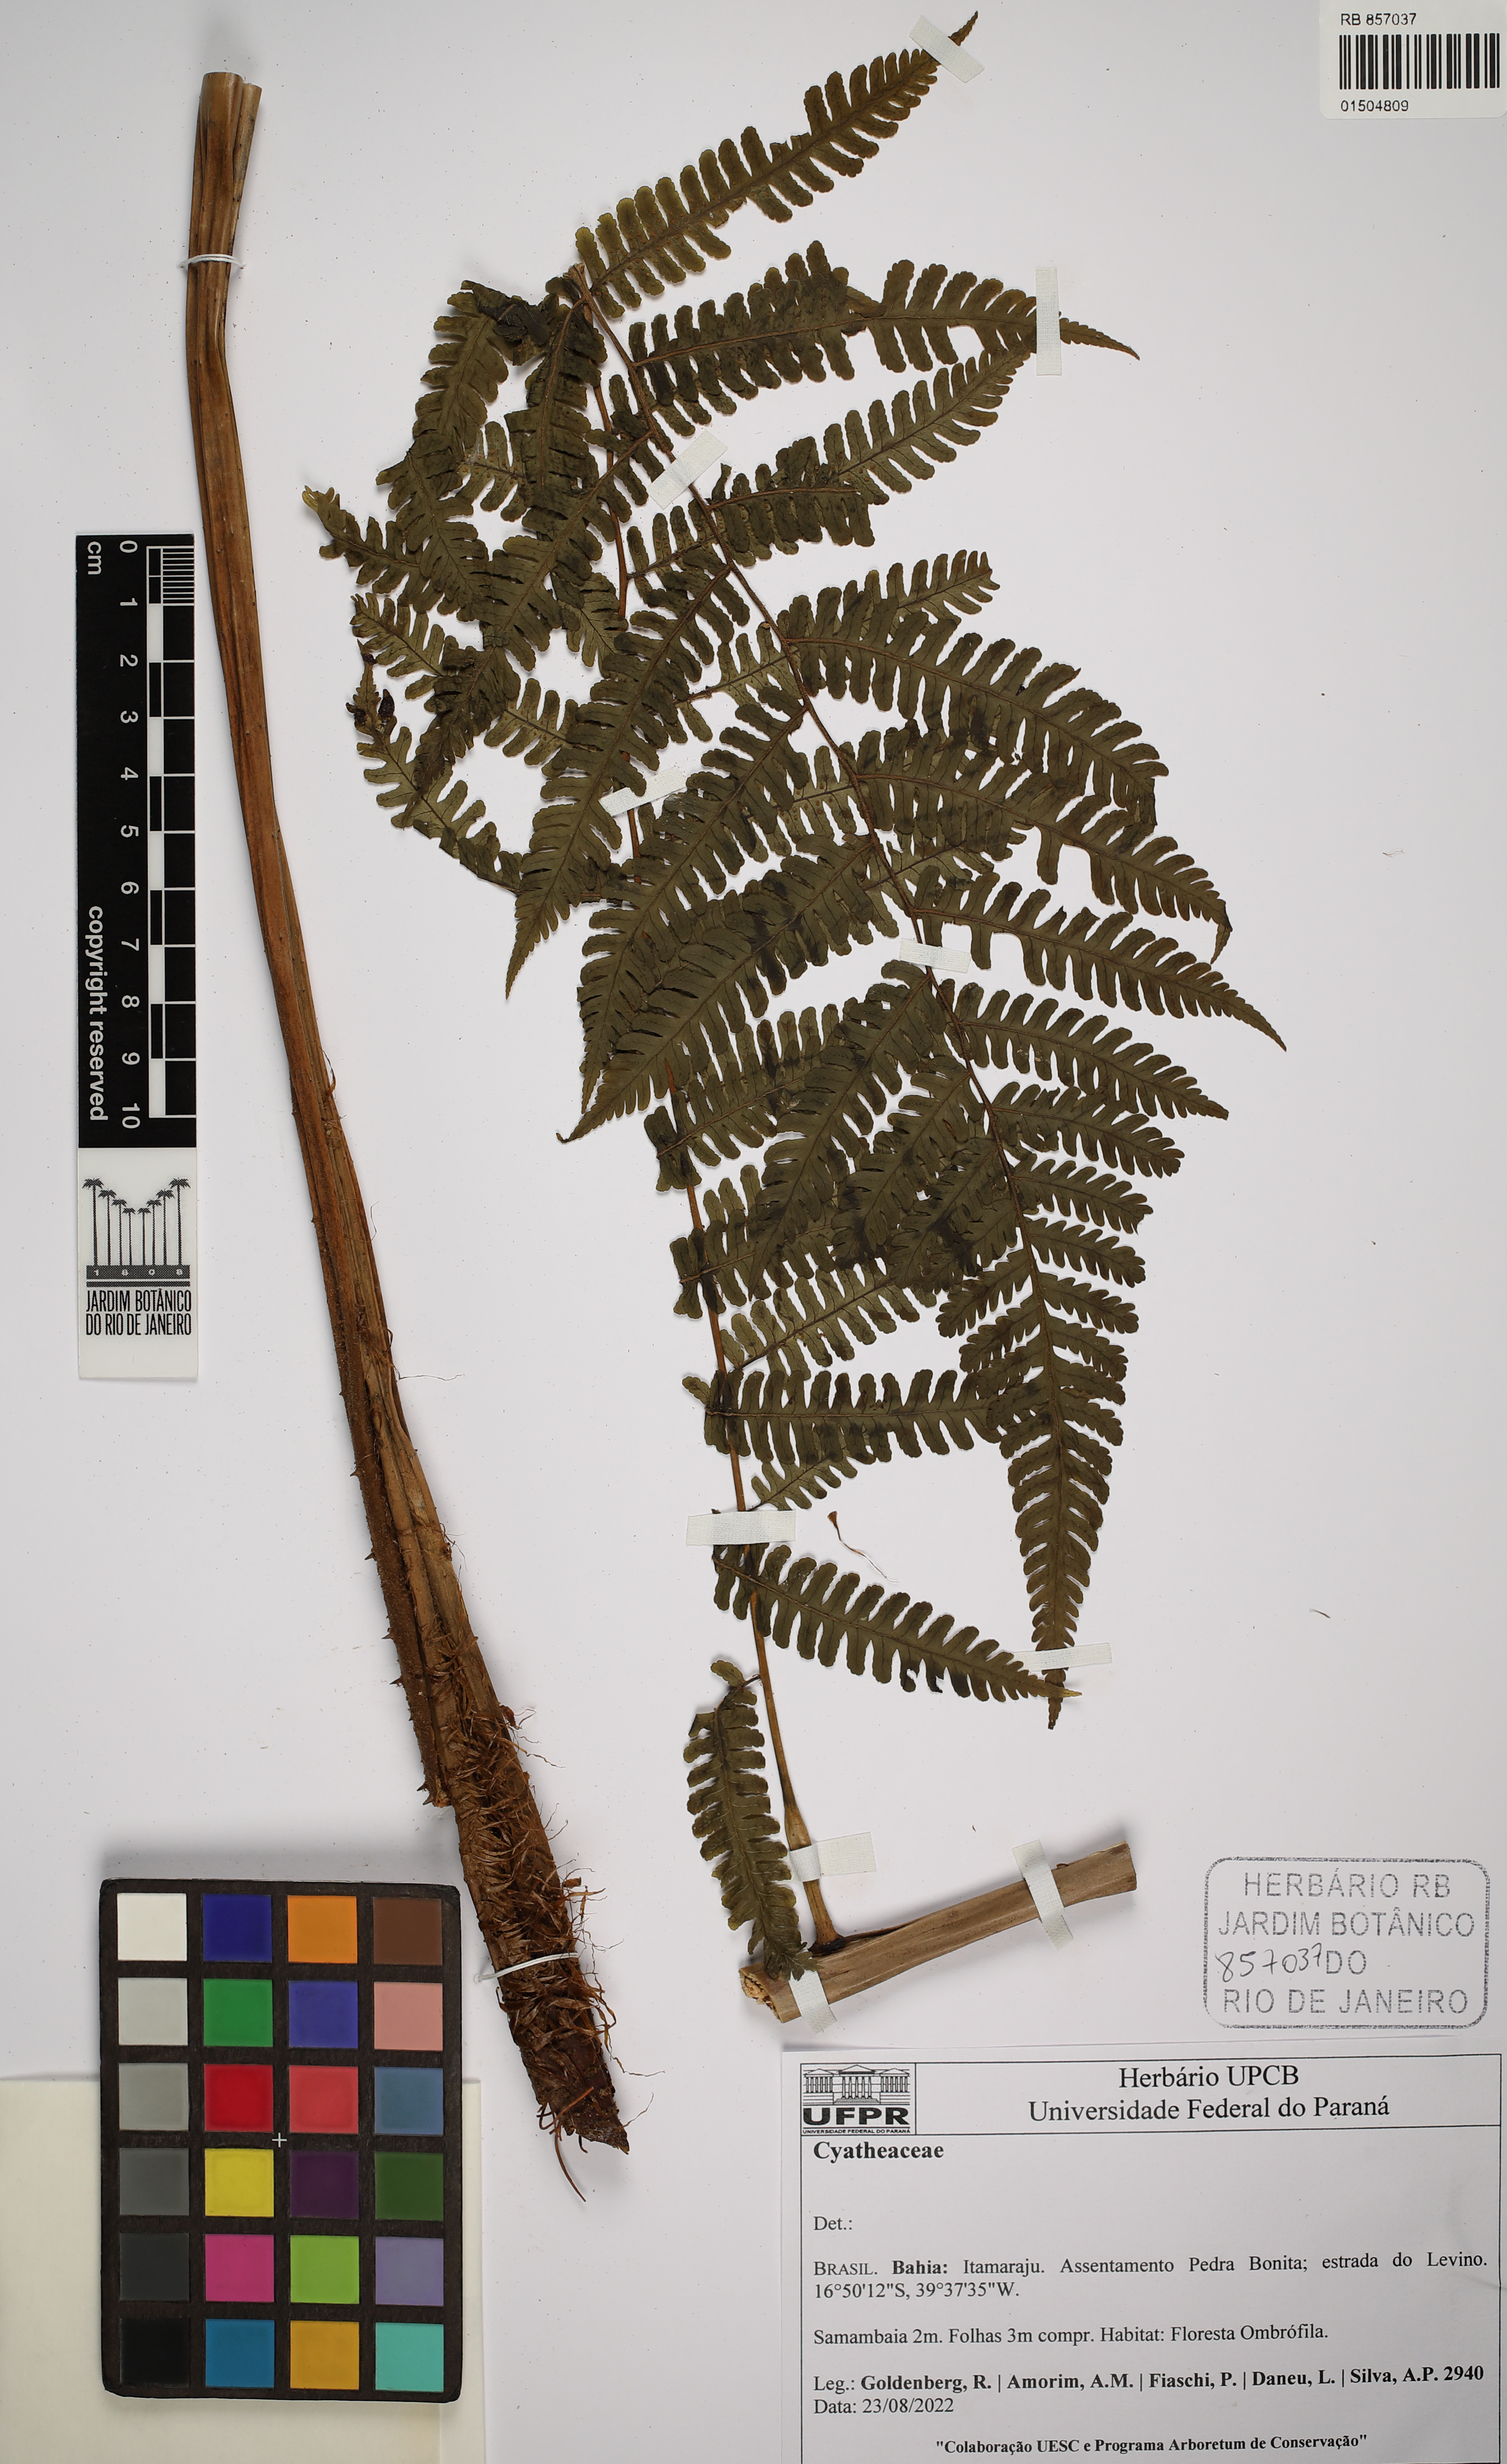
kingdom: Plantae
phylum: Tracheophyta
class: Polypodiopsida
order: Cyatheales
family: Cyatheaceae
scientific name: Cyatheaceae
